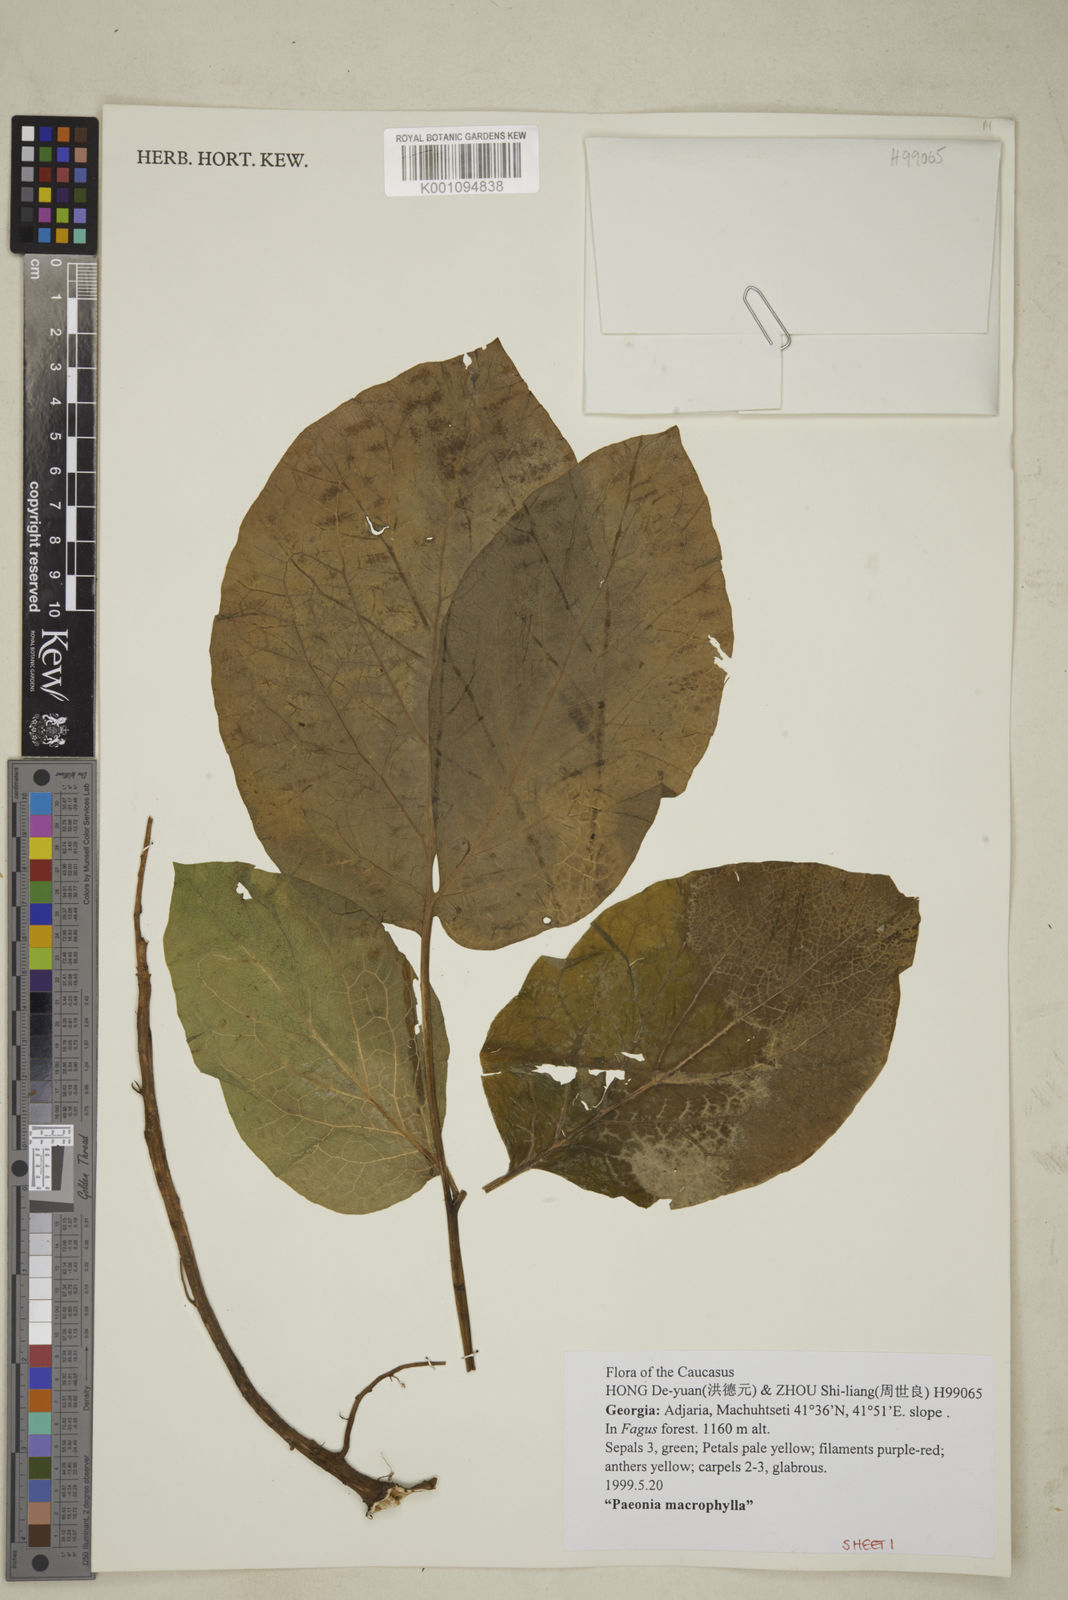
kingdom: Plantae
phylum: Tracheophyta
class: Magnoliopsida
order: Saxifragales
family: Paeoniaceae
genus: Paeonia
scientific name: Paeonia wittmanniana
